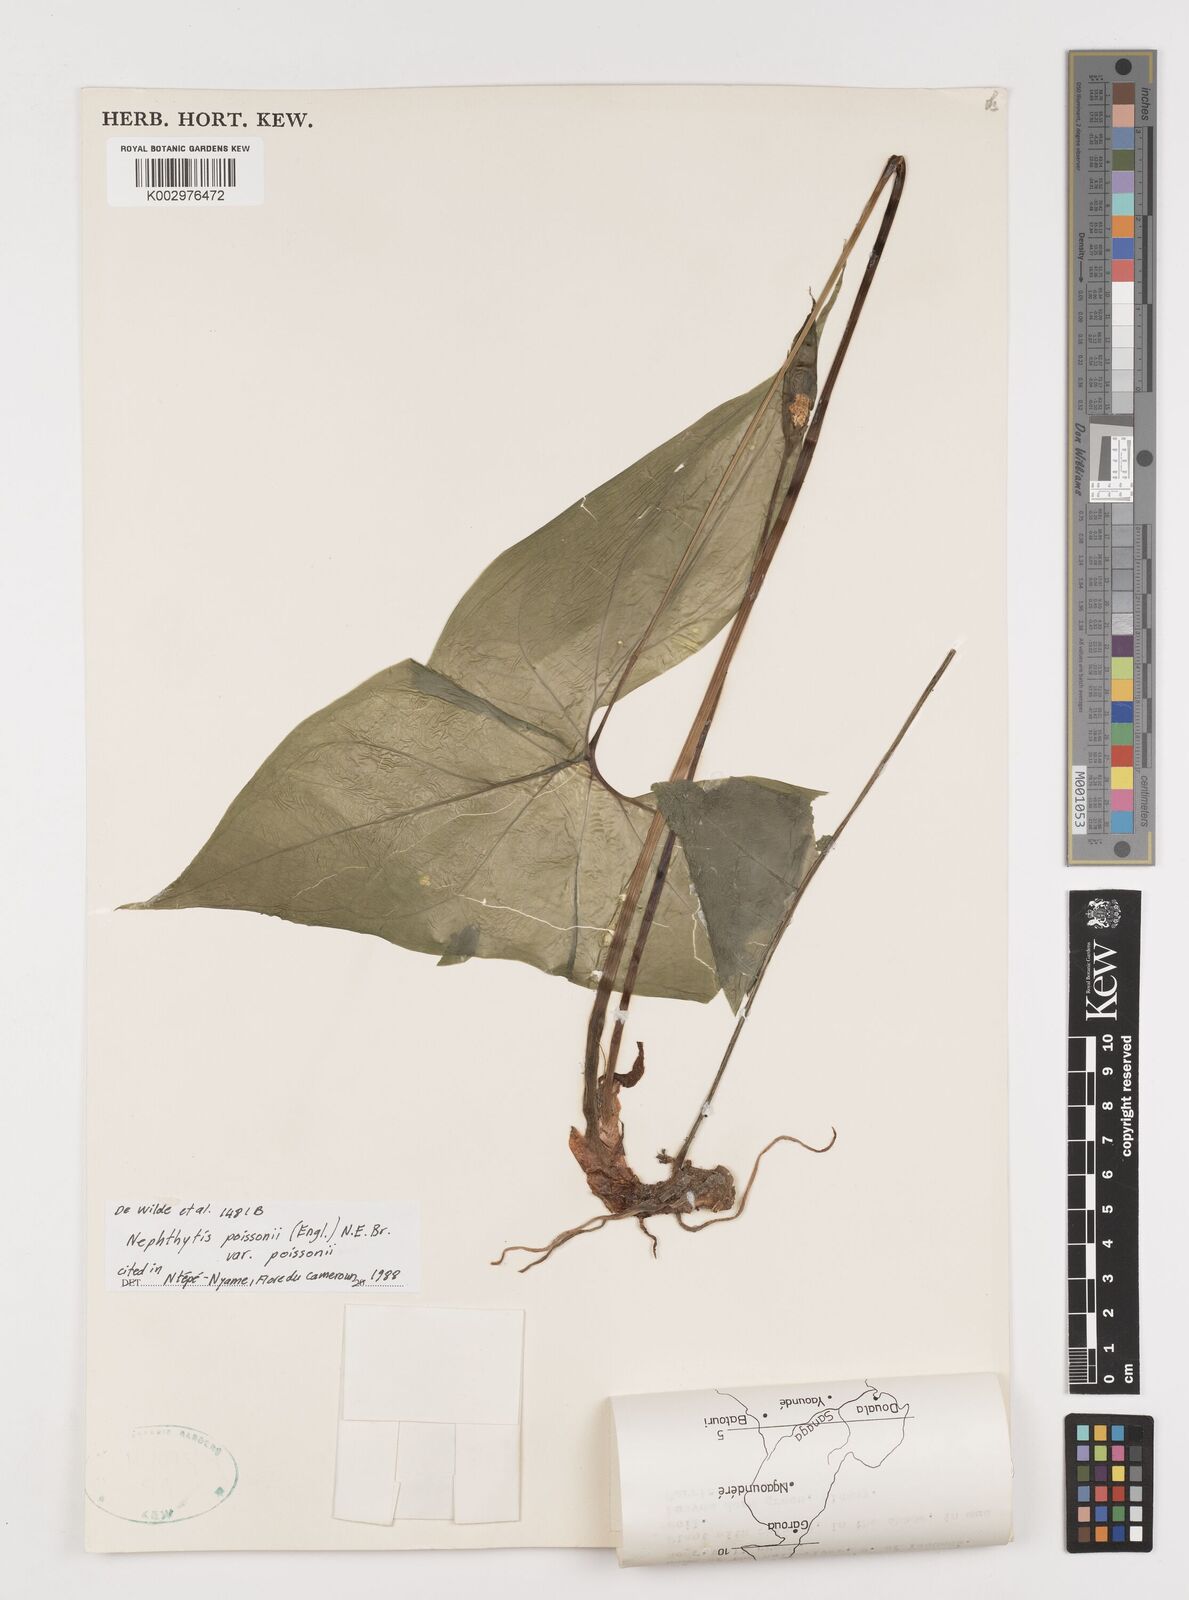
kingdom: Plantae
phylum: Tracheophyta
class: Liliopsida
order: Alismatales
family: Araceae
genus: Nephthytis
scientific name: Nephthytis poissonii
